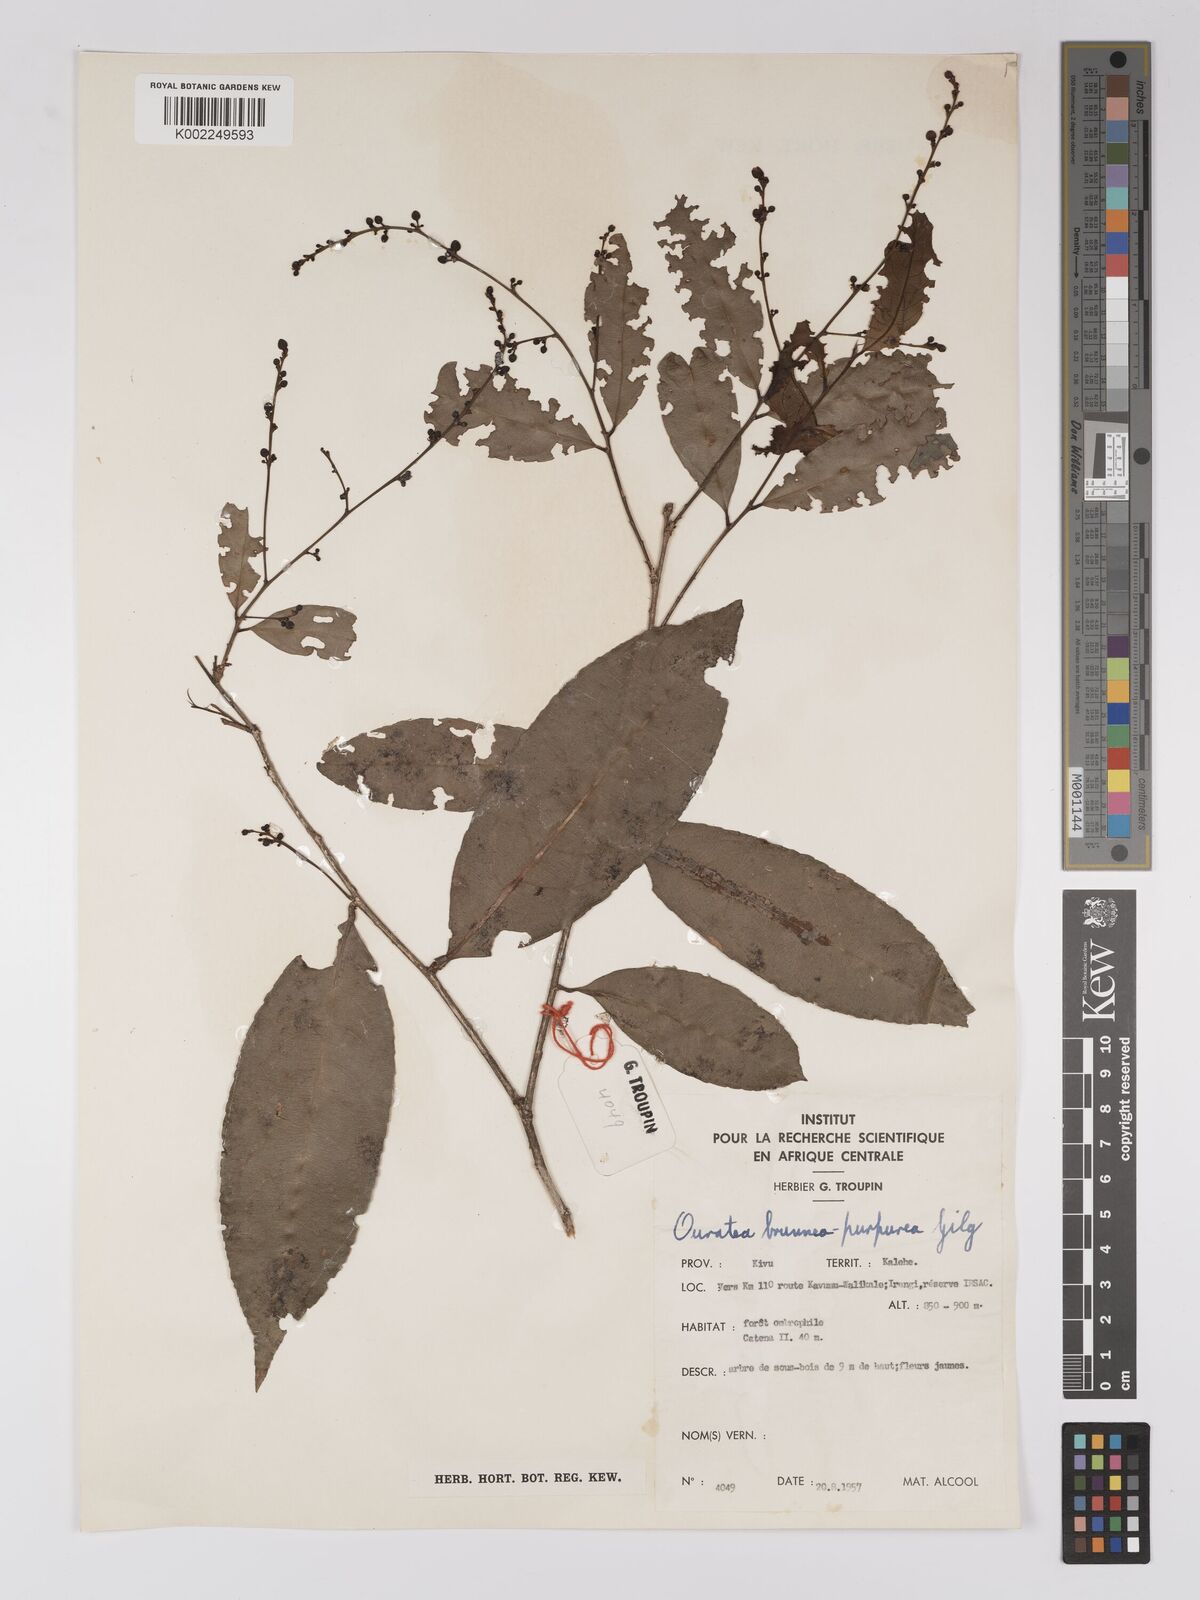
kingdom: Plantae
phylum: Tracheophyta
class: Magnoliopsida
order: Malpighiales
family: Ochnaceae
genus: Campylospermum
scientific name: Campylospermum reticulatum
